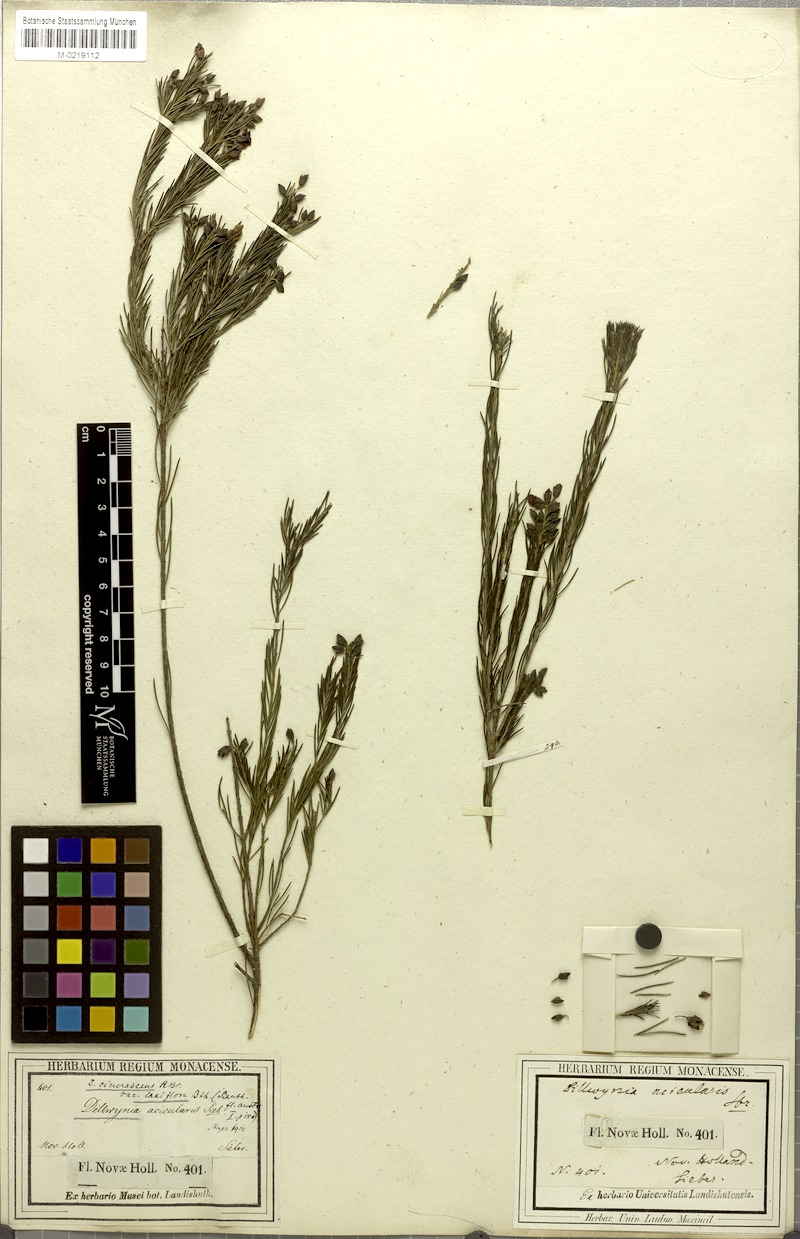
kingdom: Plantae
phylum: Tracheophyta
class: Magnoliopsida
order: Fabales
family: Fabaceae
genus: Dillwynia
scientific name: Dillwynia acicularis
